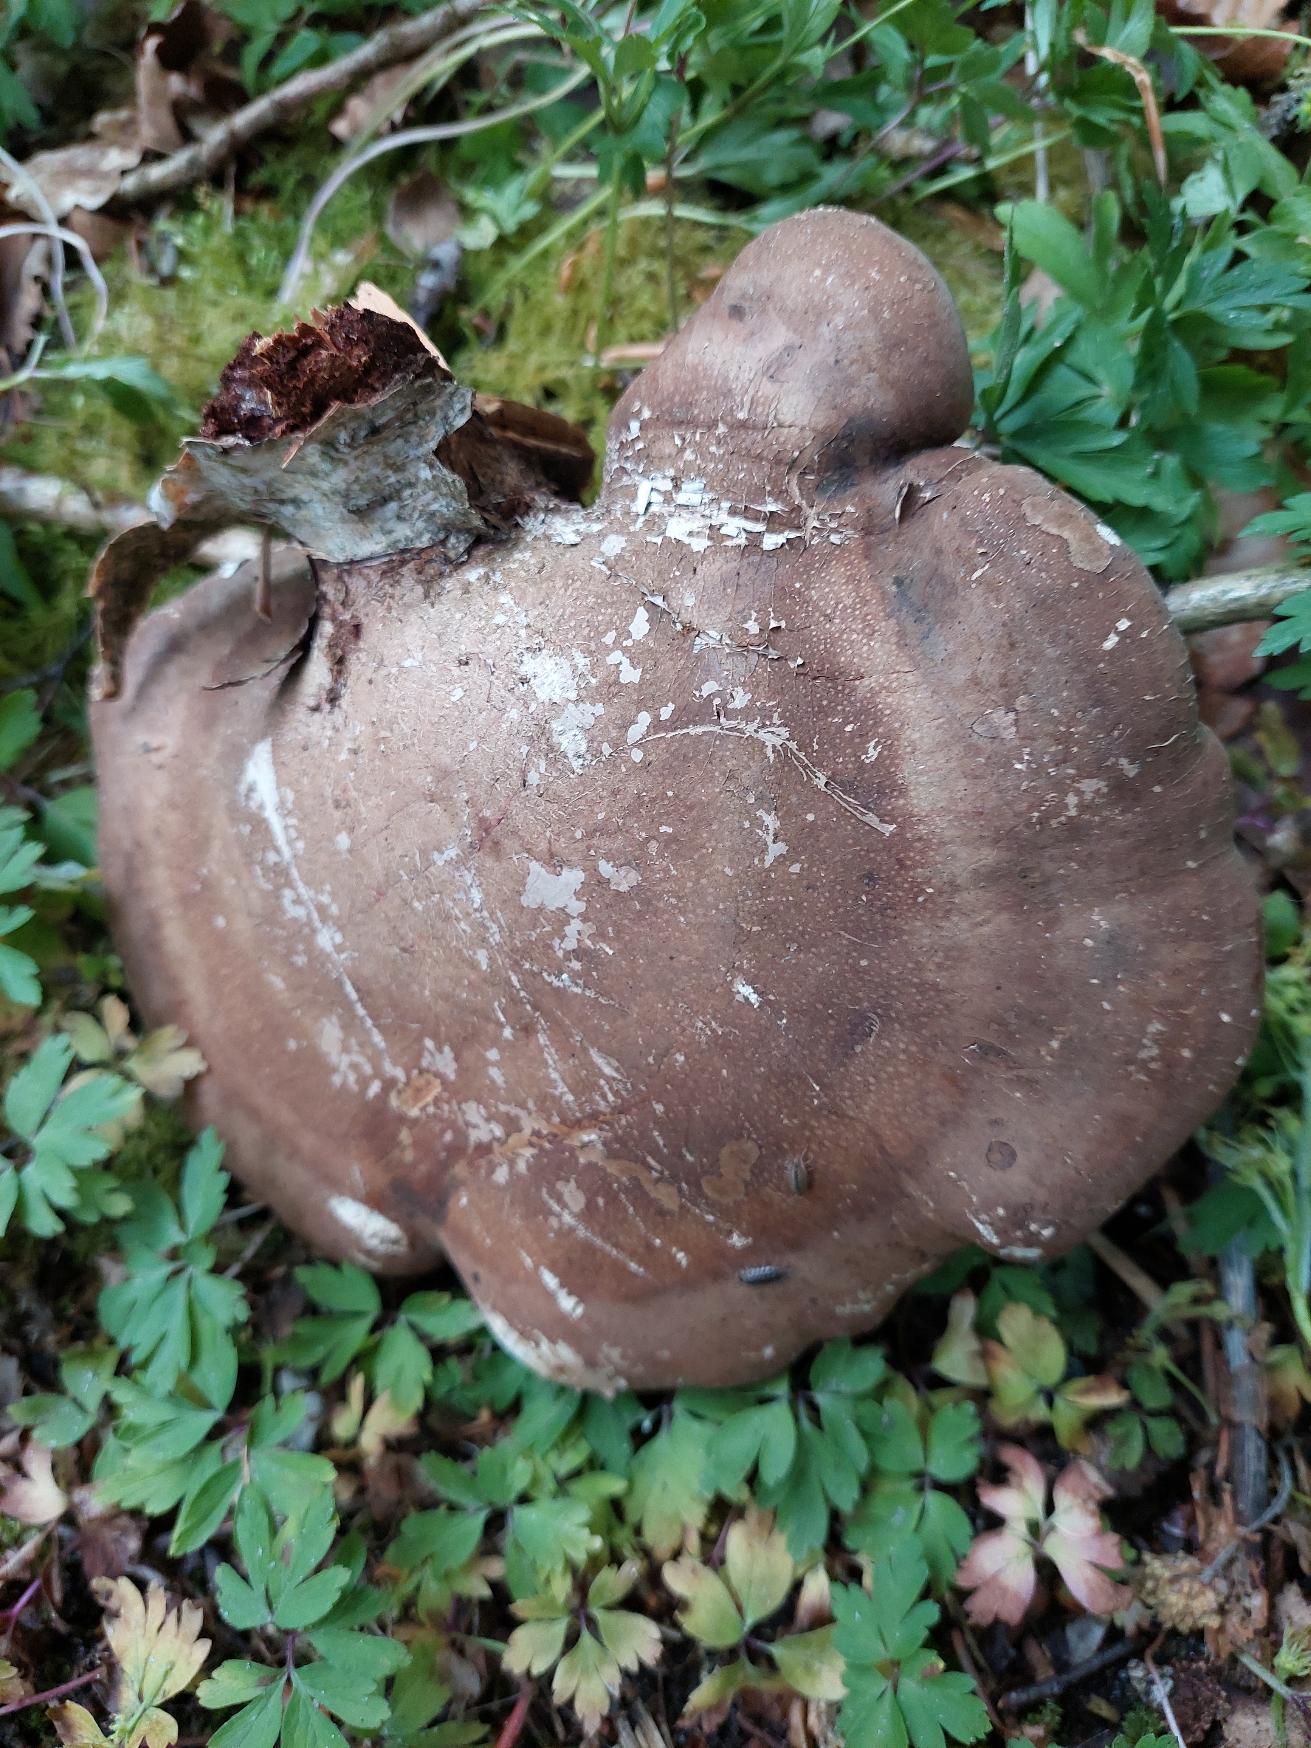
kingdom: Fungi
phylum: Basidiomycota
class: Agaricomycetes
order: Polyporales
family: Fomitopsidaceae
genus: Fomitopsis
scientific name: Fomitopsis betulina
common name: Birkeporesvamp
